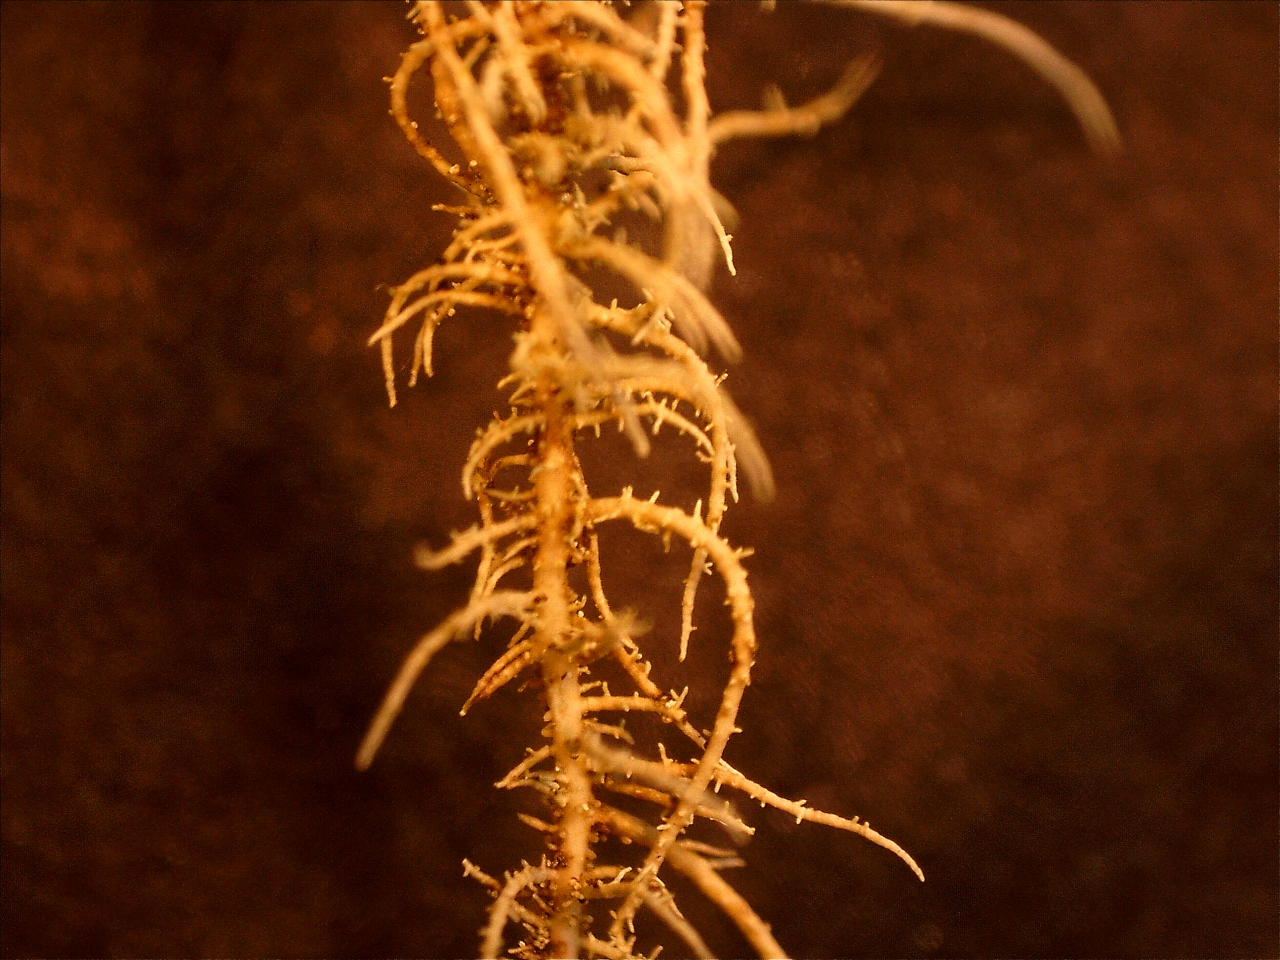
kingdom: Fungi
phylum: Ascomycota
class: Lecanoromycetes
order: Lecanorales
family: Parmeliaceae
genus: Usnea
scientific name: Usnea dasypoga
